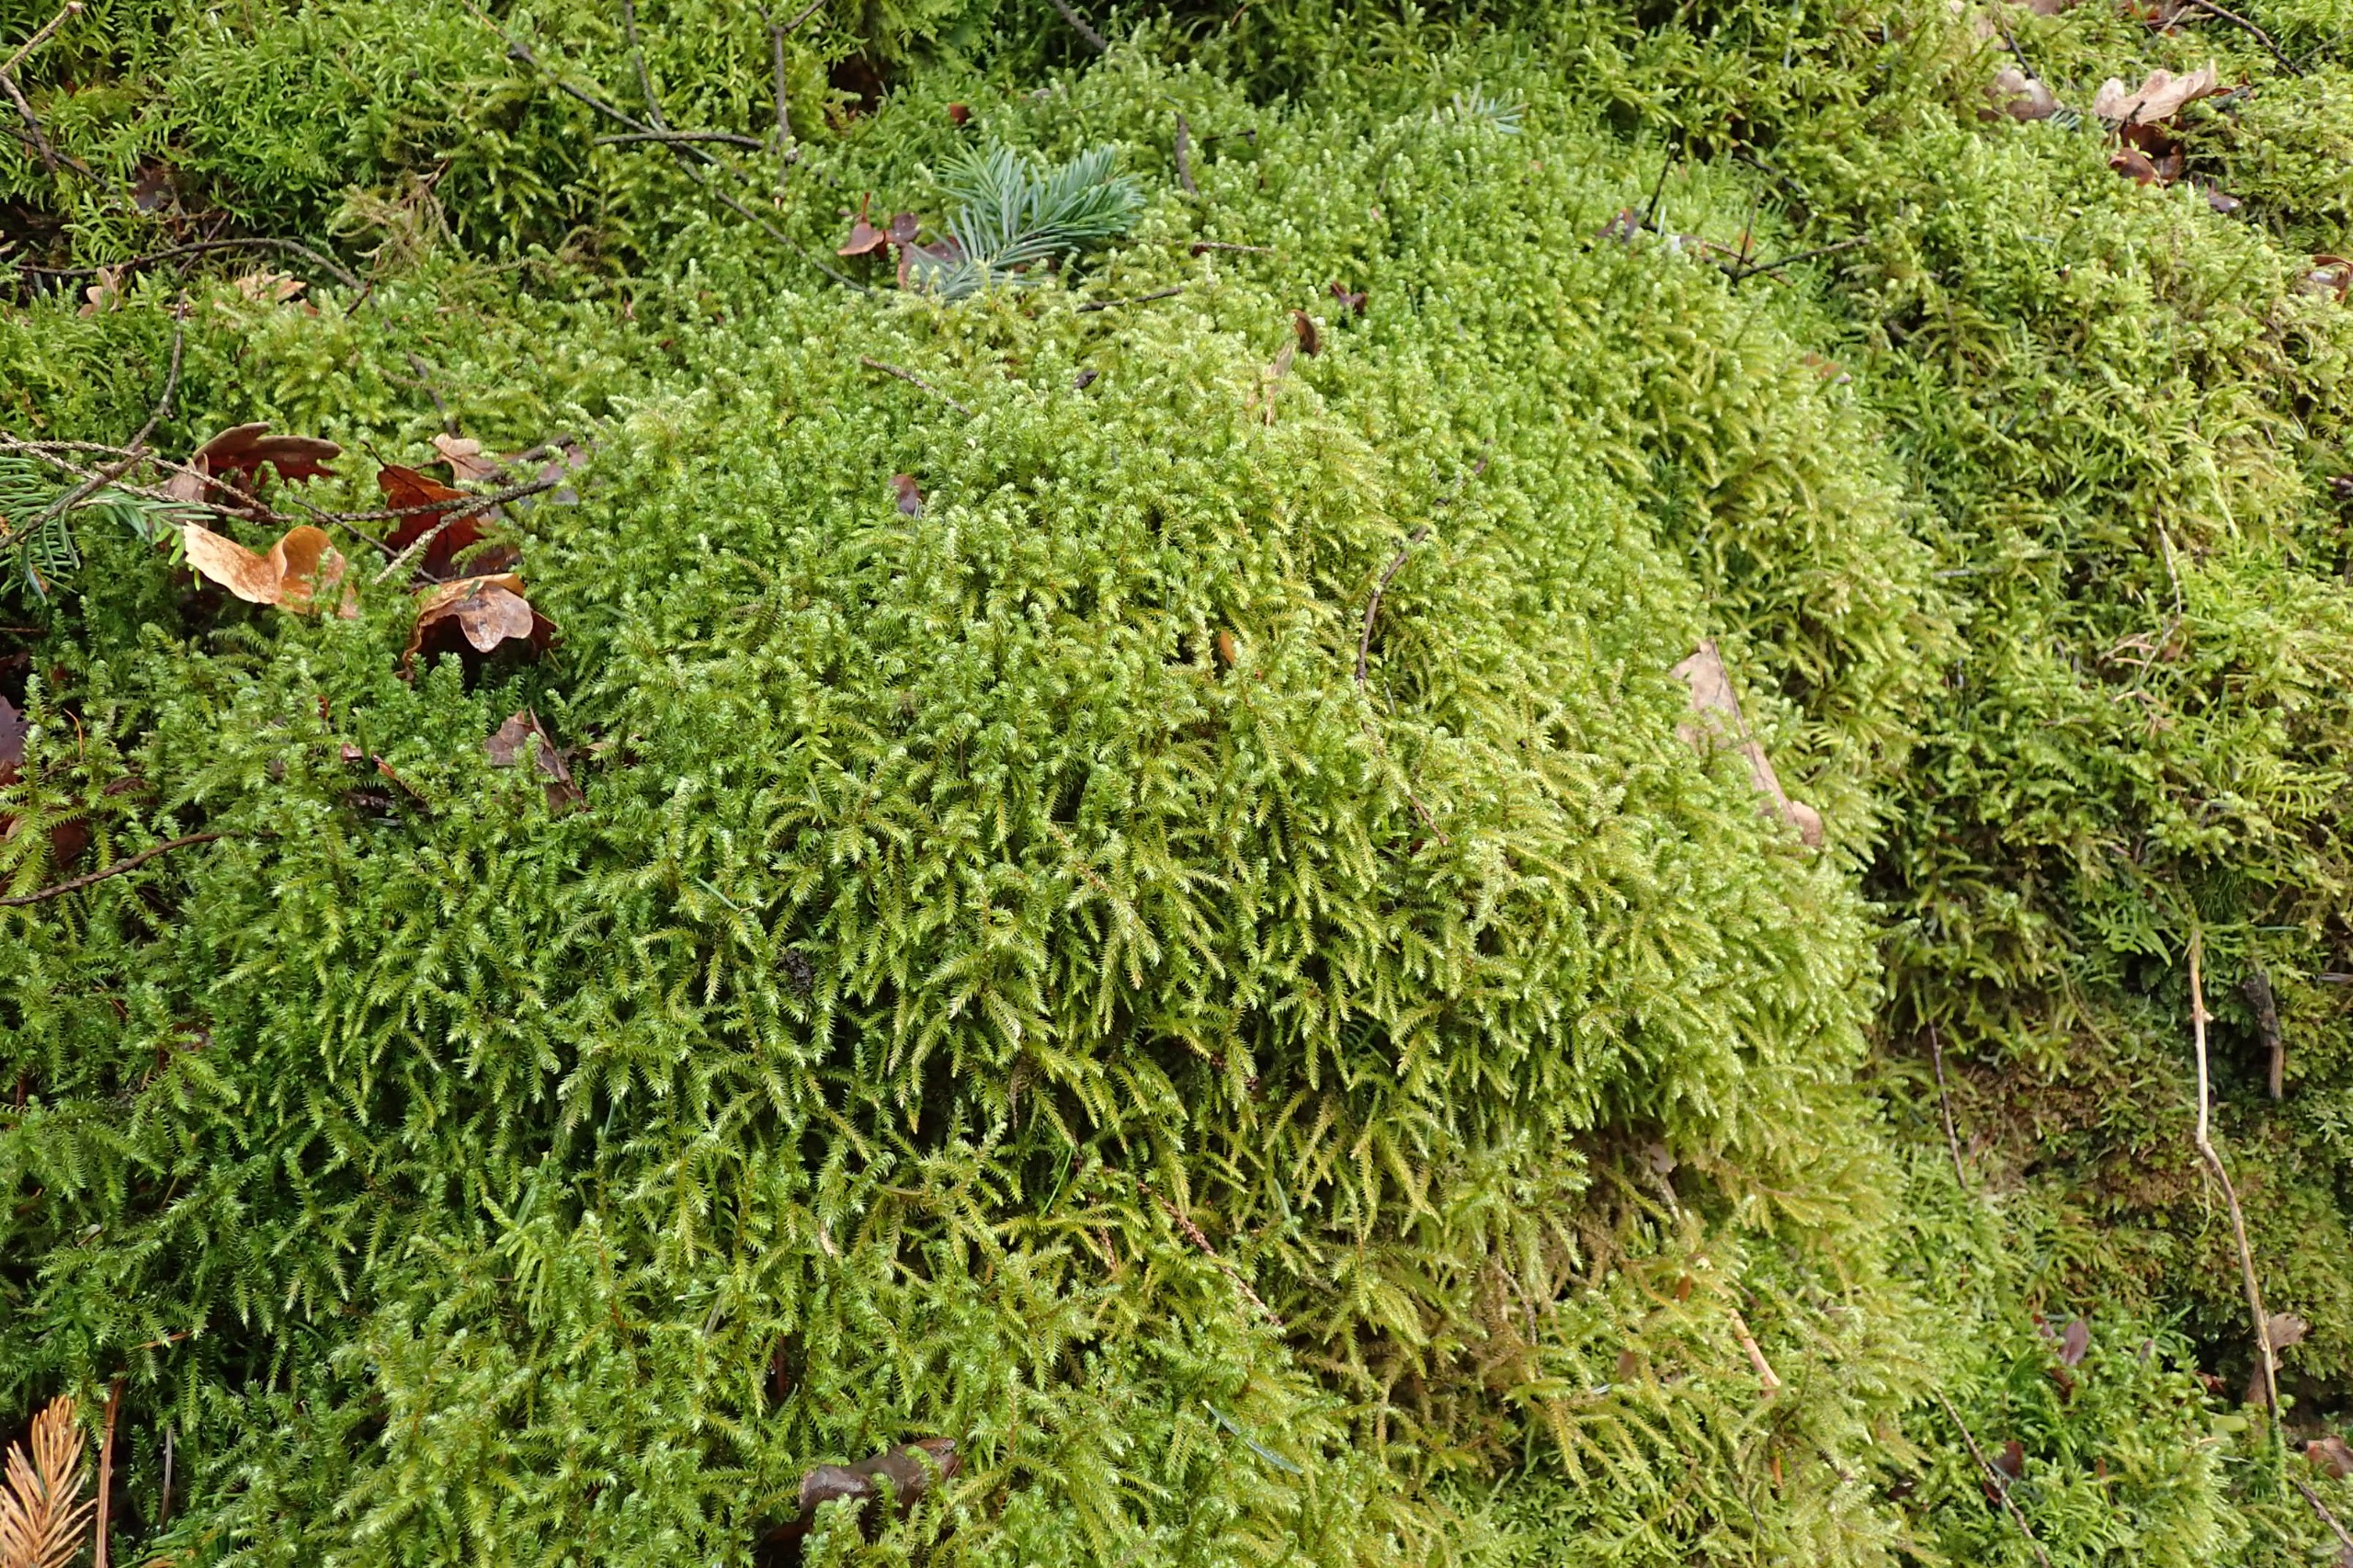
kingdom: Plantae
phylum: Bryophyta
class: Bryopsida
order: Hypnales
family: Hylocomiaceae
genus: Rhytidiadelphus
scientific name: Rhytidiadelphus loreus
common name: Ulvefod-kransemos
